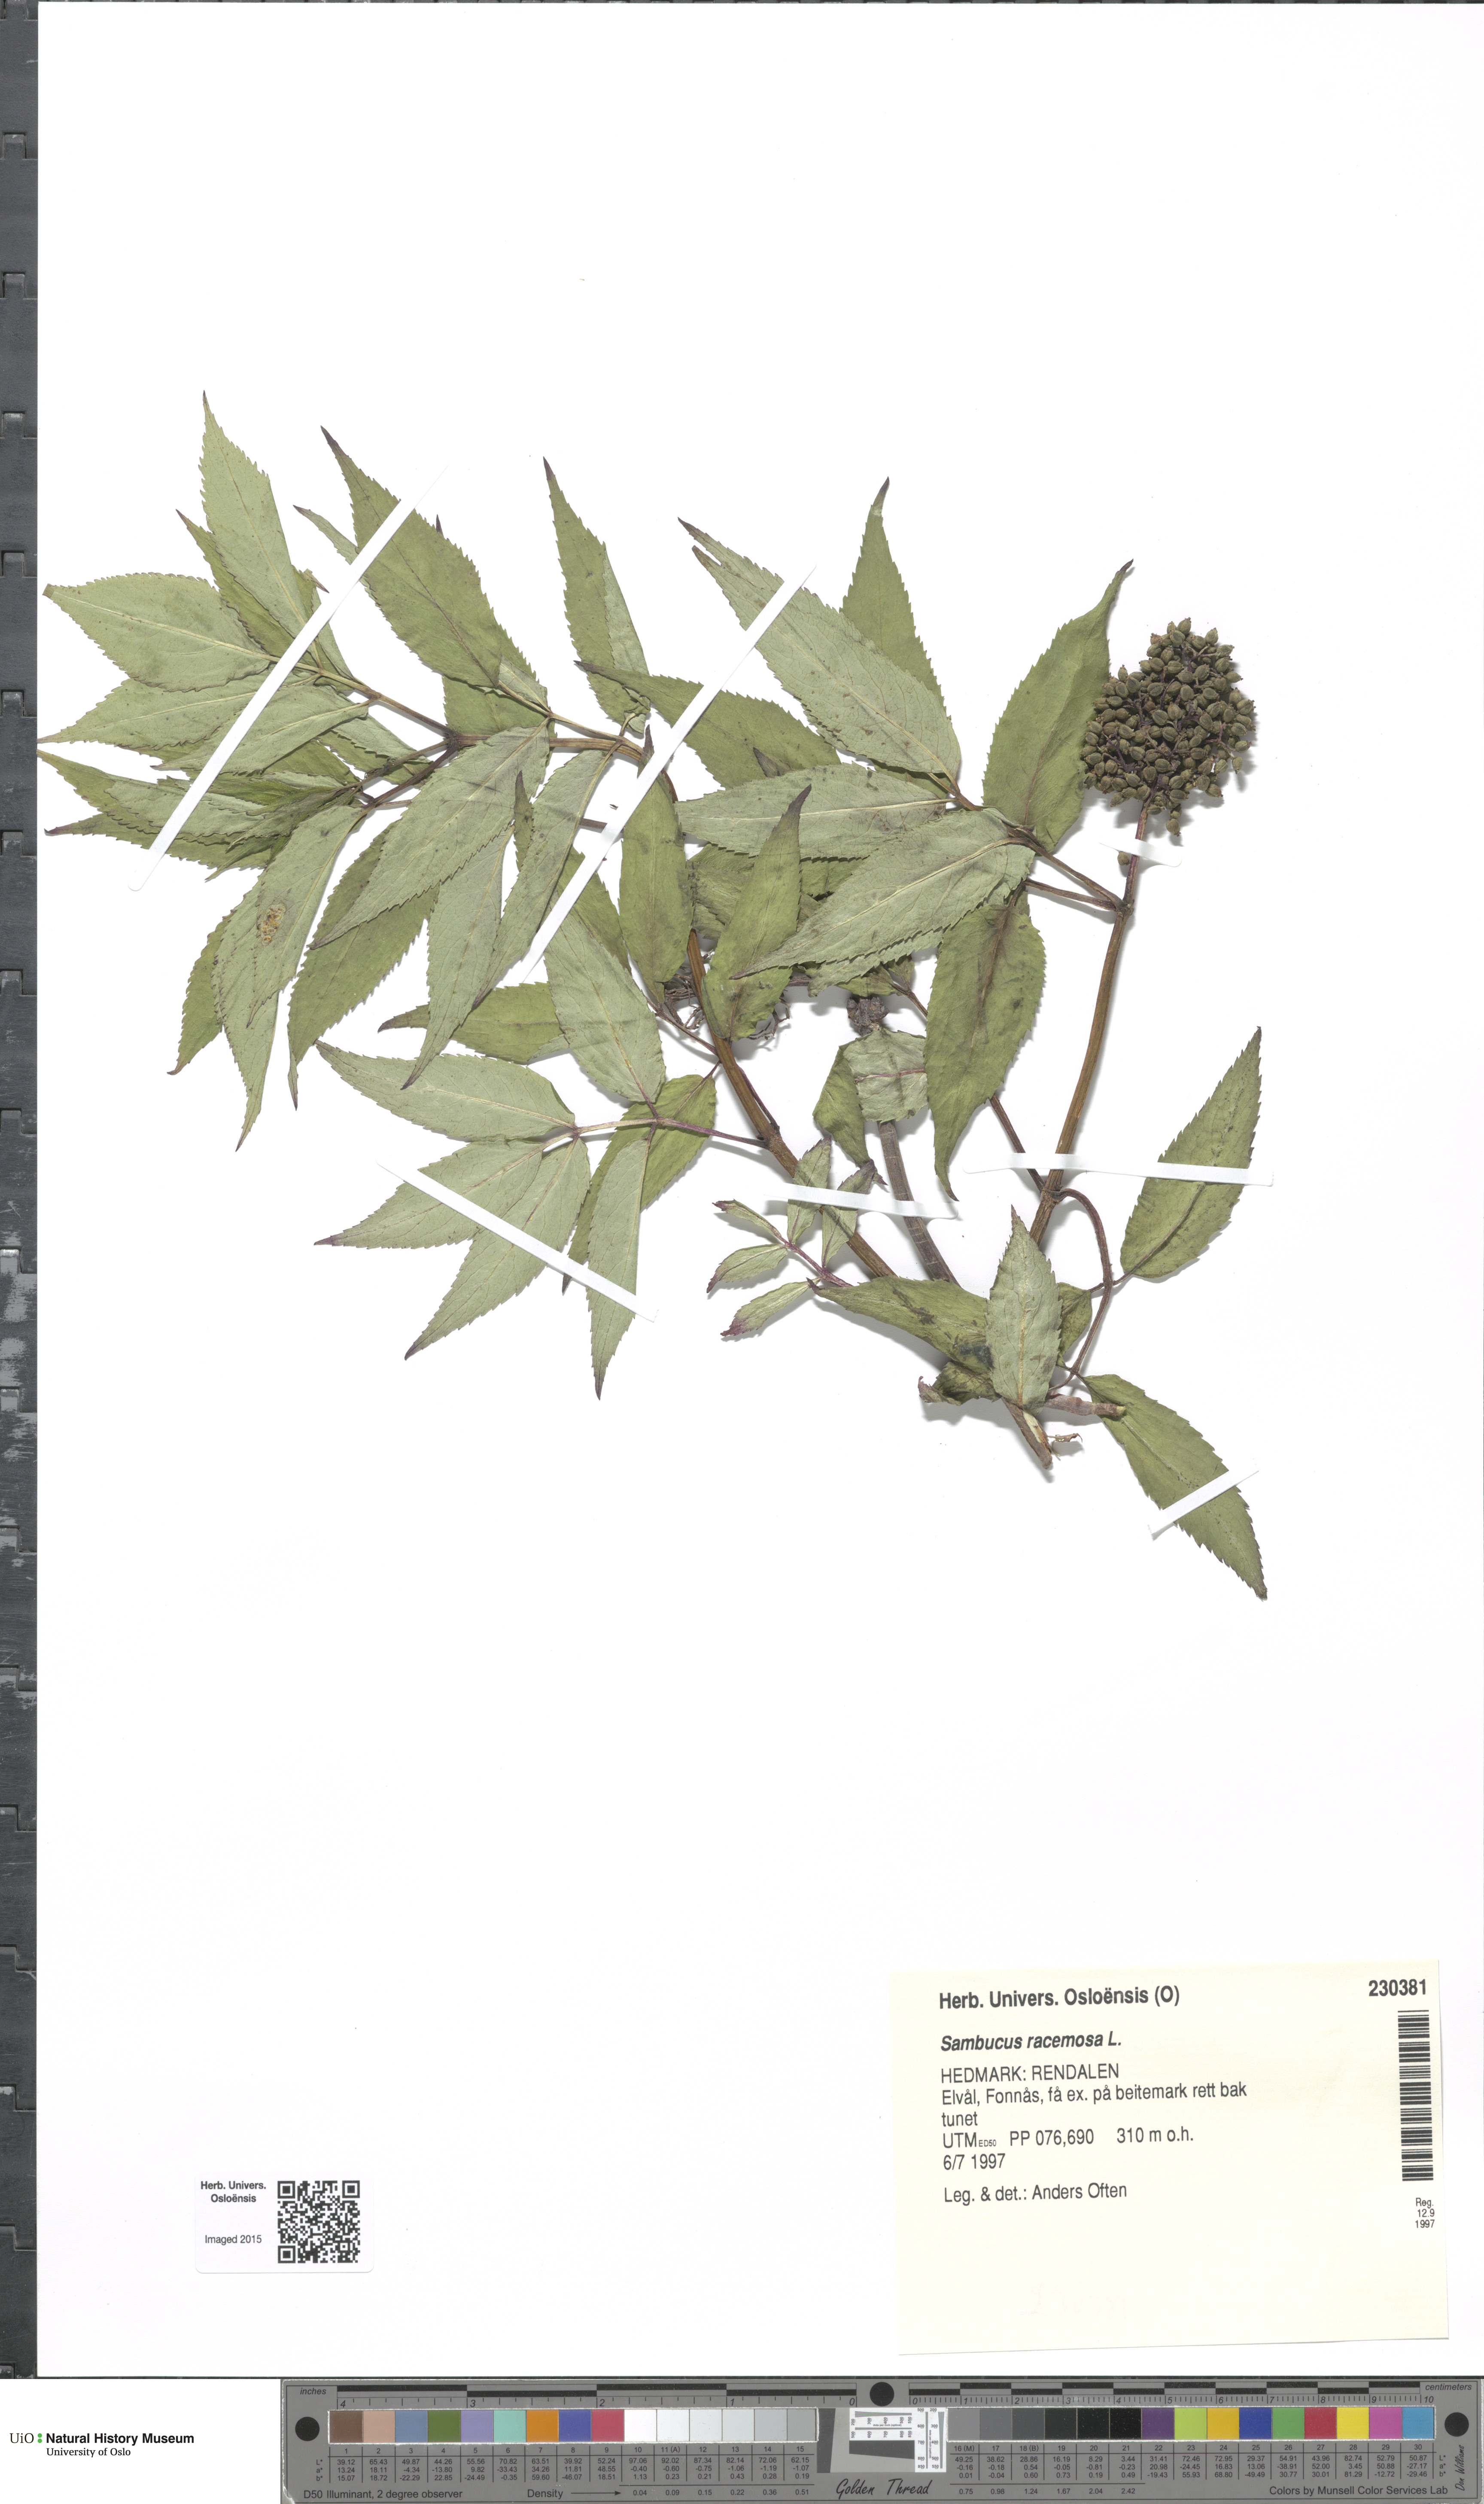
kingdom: Plantae
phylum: Tracheophyta
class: Magnoliopsida
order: Dipsacales
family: Viburnaceae
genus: Sambucus
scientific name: Sambucus racemosa
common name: Red-berried elder
